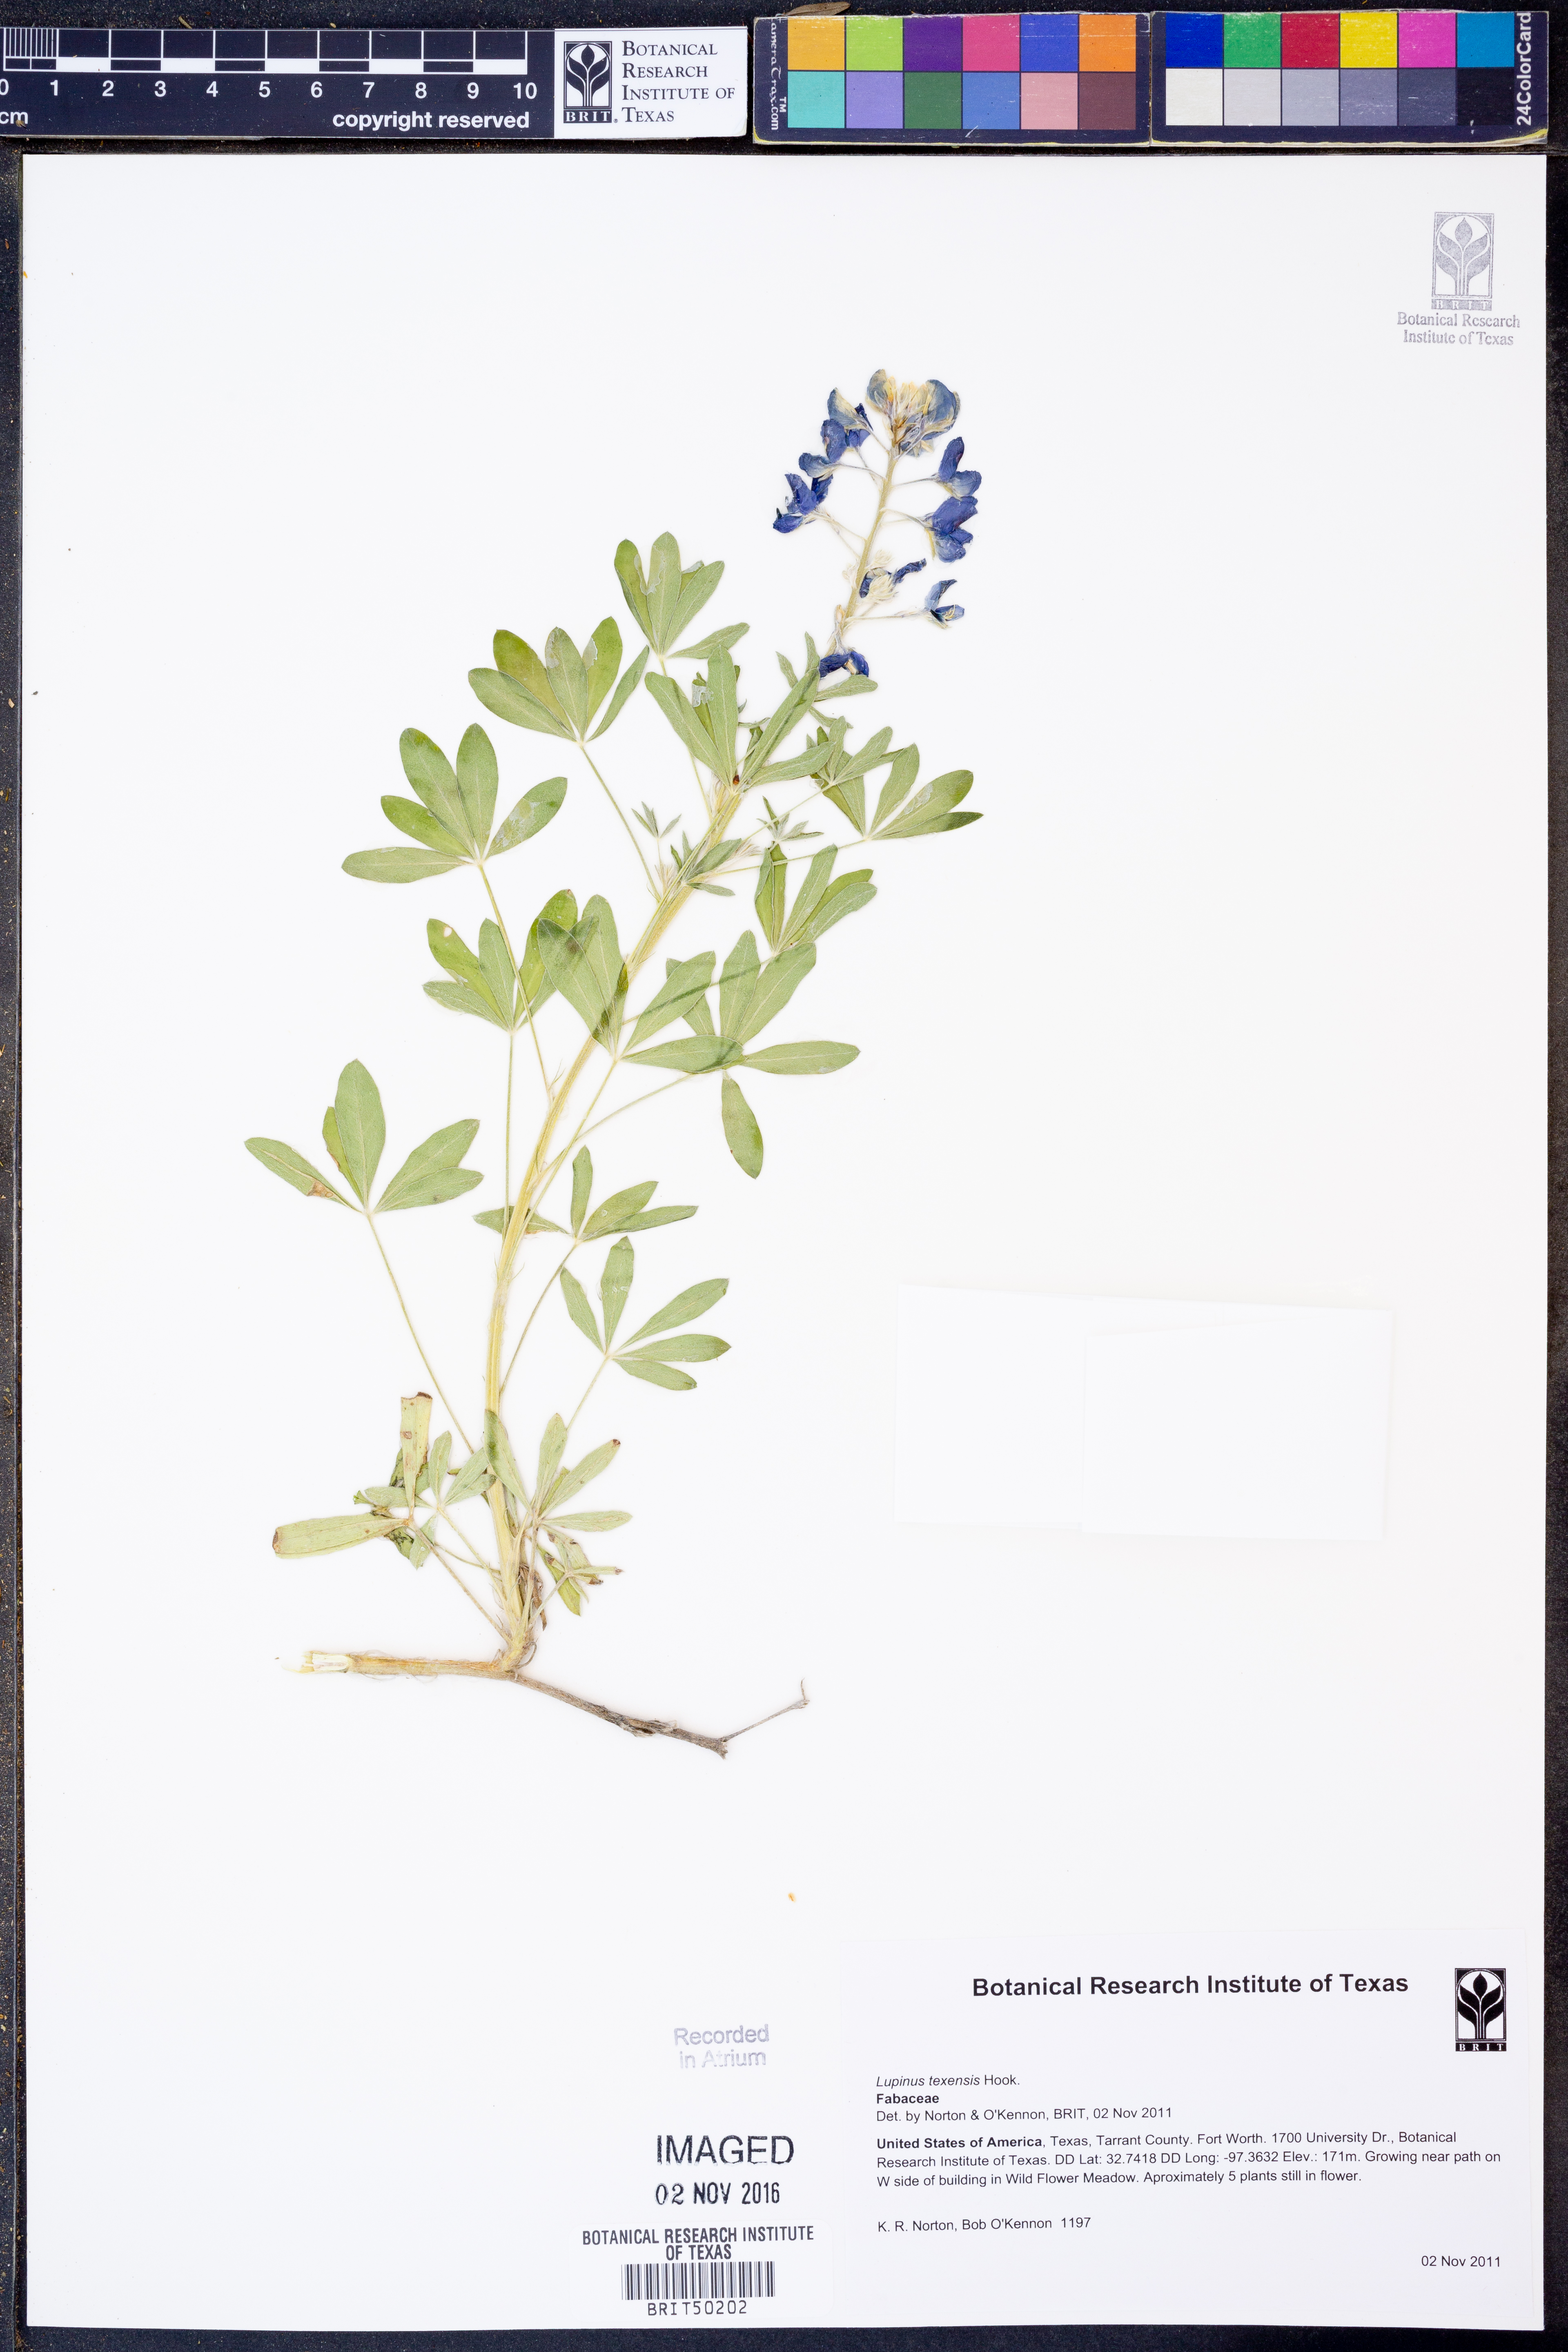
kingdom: Plantae
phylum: Tracheophyta
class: Magnoliopsida
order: Fabales
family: Fabaceae
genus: Lupinus
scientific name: Lupinus texensis
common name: Texas bluebonnet
